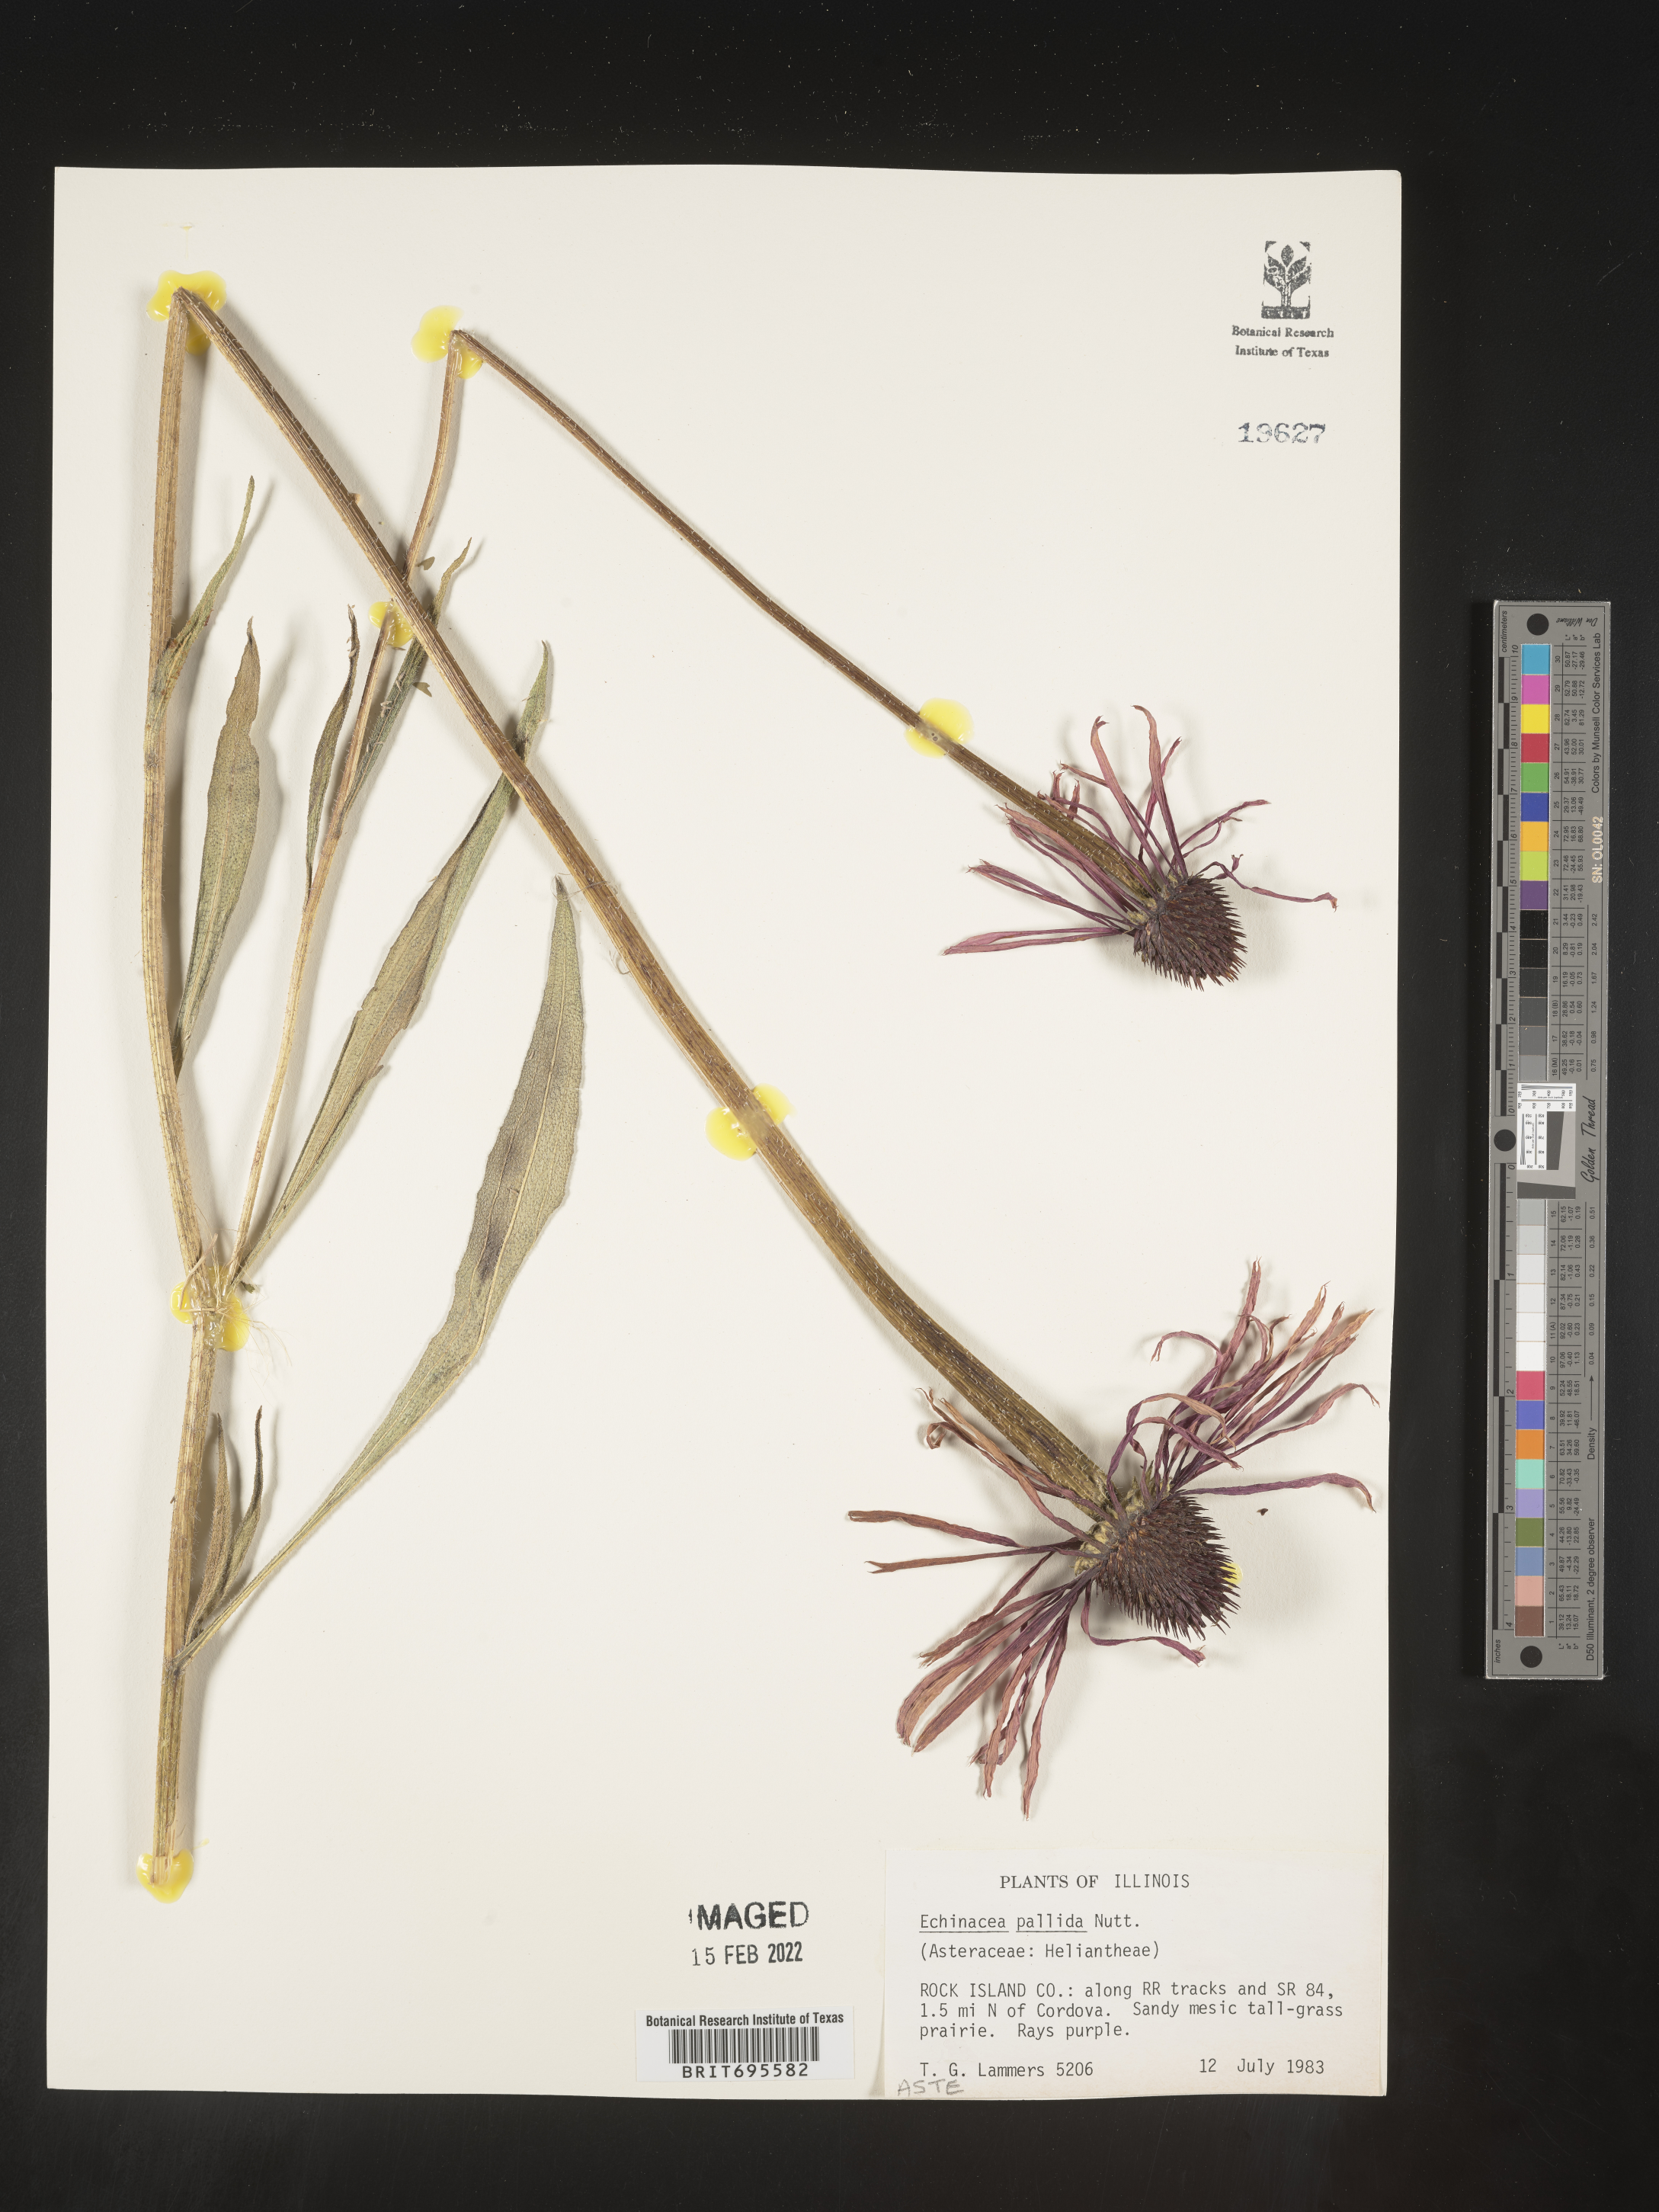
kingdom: Plantae
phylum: Tracheophyta
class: Magnoliopsida
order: Asterales
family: Asteraceae
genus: Echinacea
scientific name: Echinacea pallida
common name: Pale echinacea
